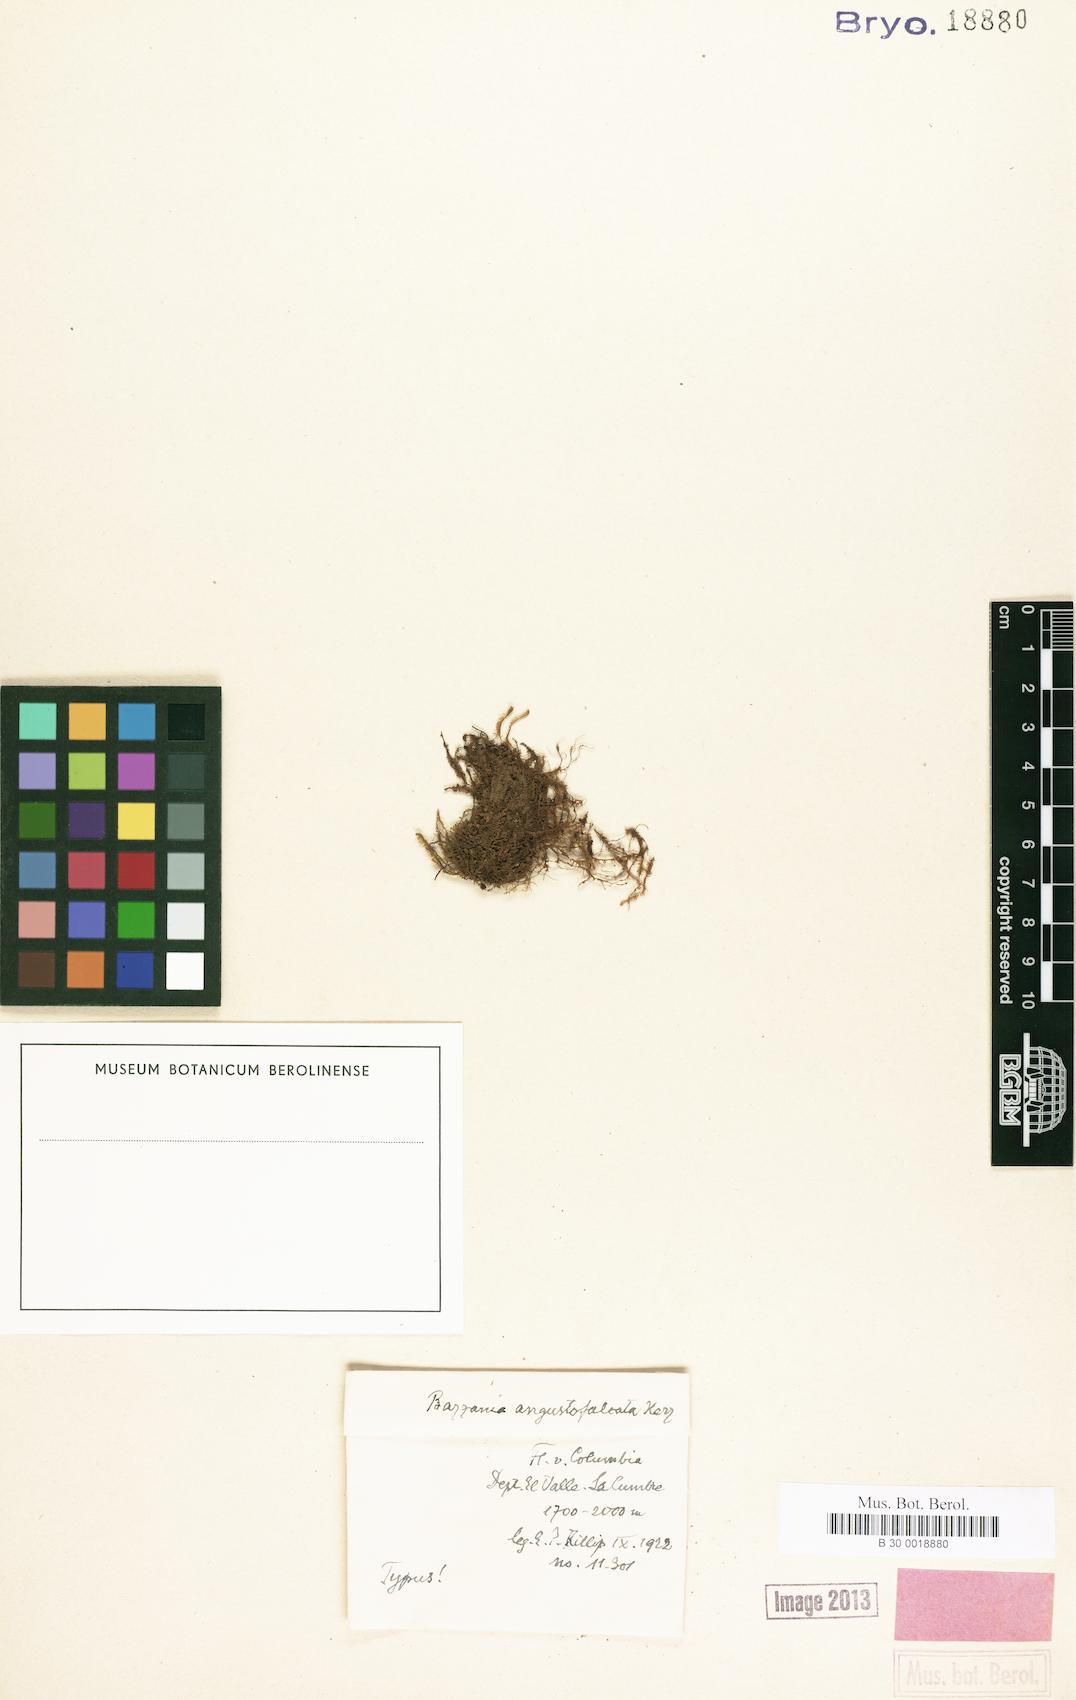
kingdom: Plantae
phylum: Marchantiophyta
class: Jungermanniopsida
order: Jungermanniales
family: Lepidoziaceae
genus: Bazzania
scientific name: Bazzania longistipula
